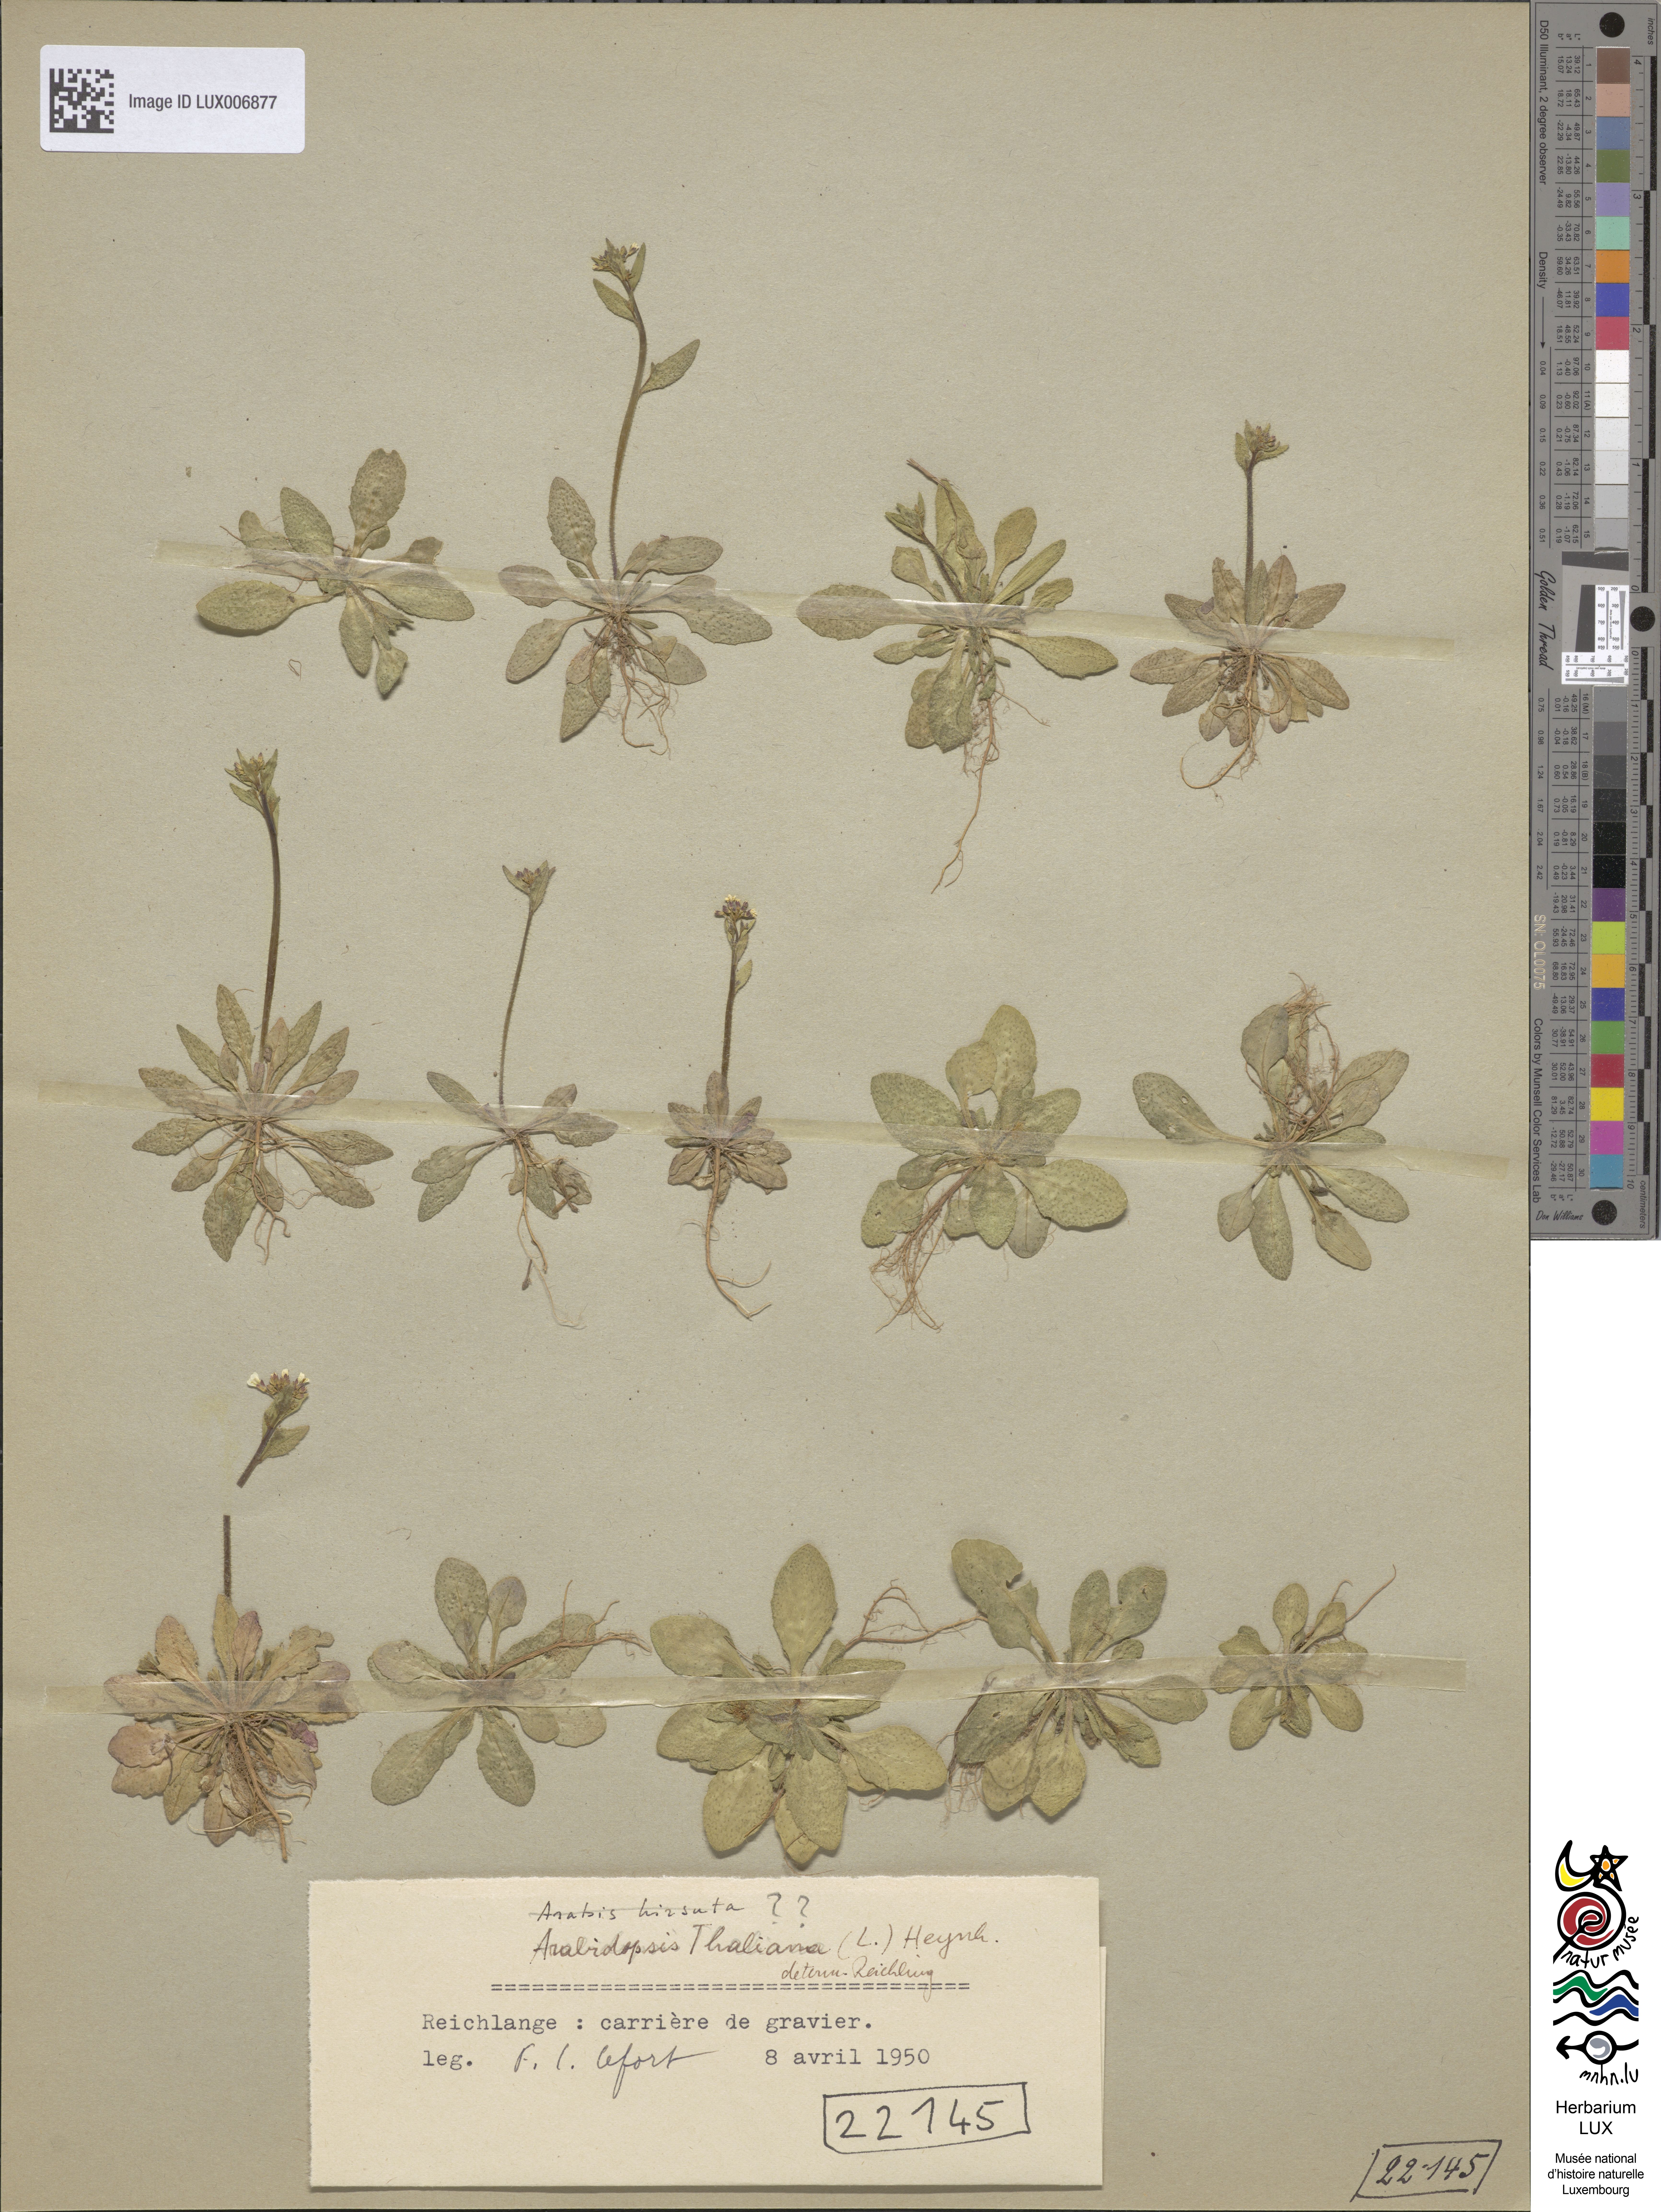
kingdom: Plantae
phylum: Tracheophyta
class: Magnoliopsida
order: Brassicales
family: Brassicaceae
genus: Arabidopsis
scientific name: Arabidopsis thaliana
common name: Thale cress
